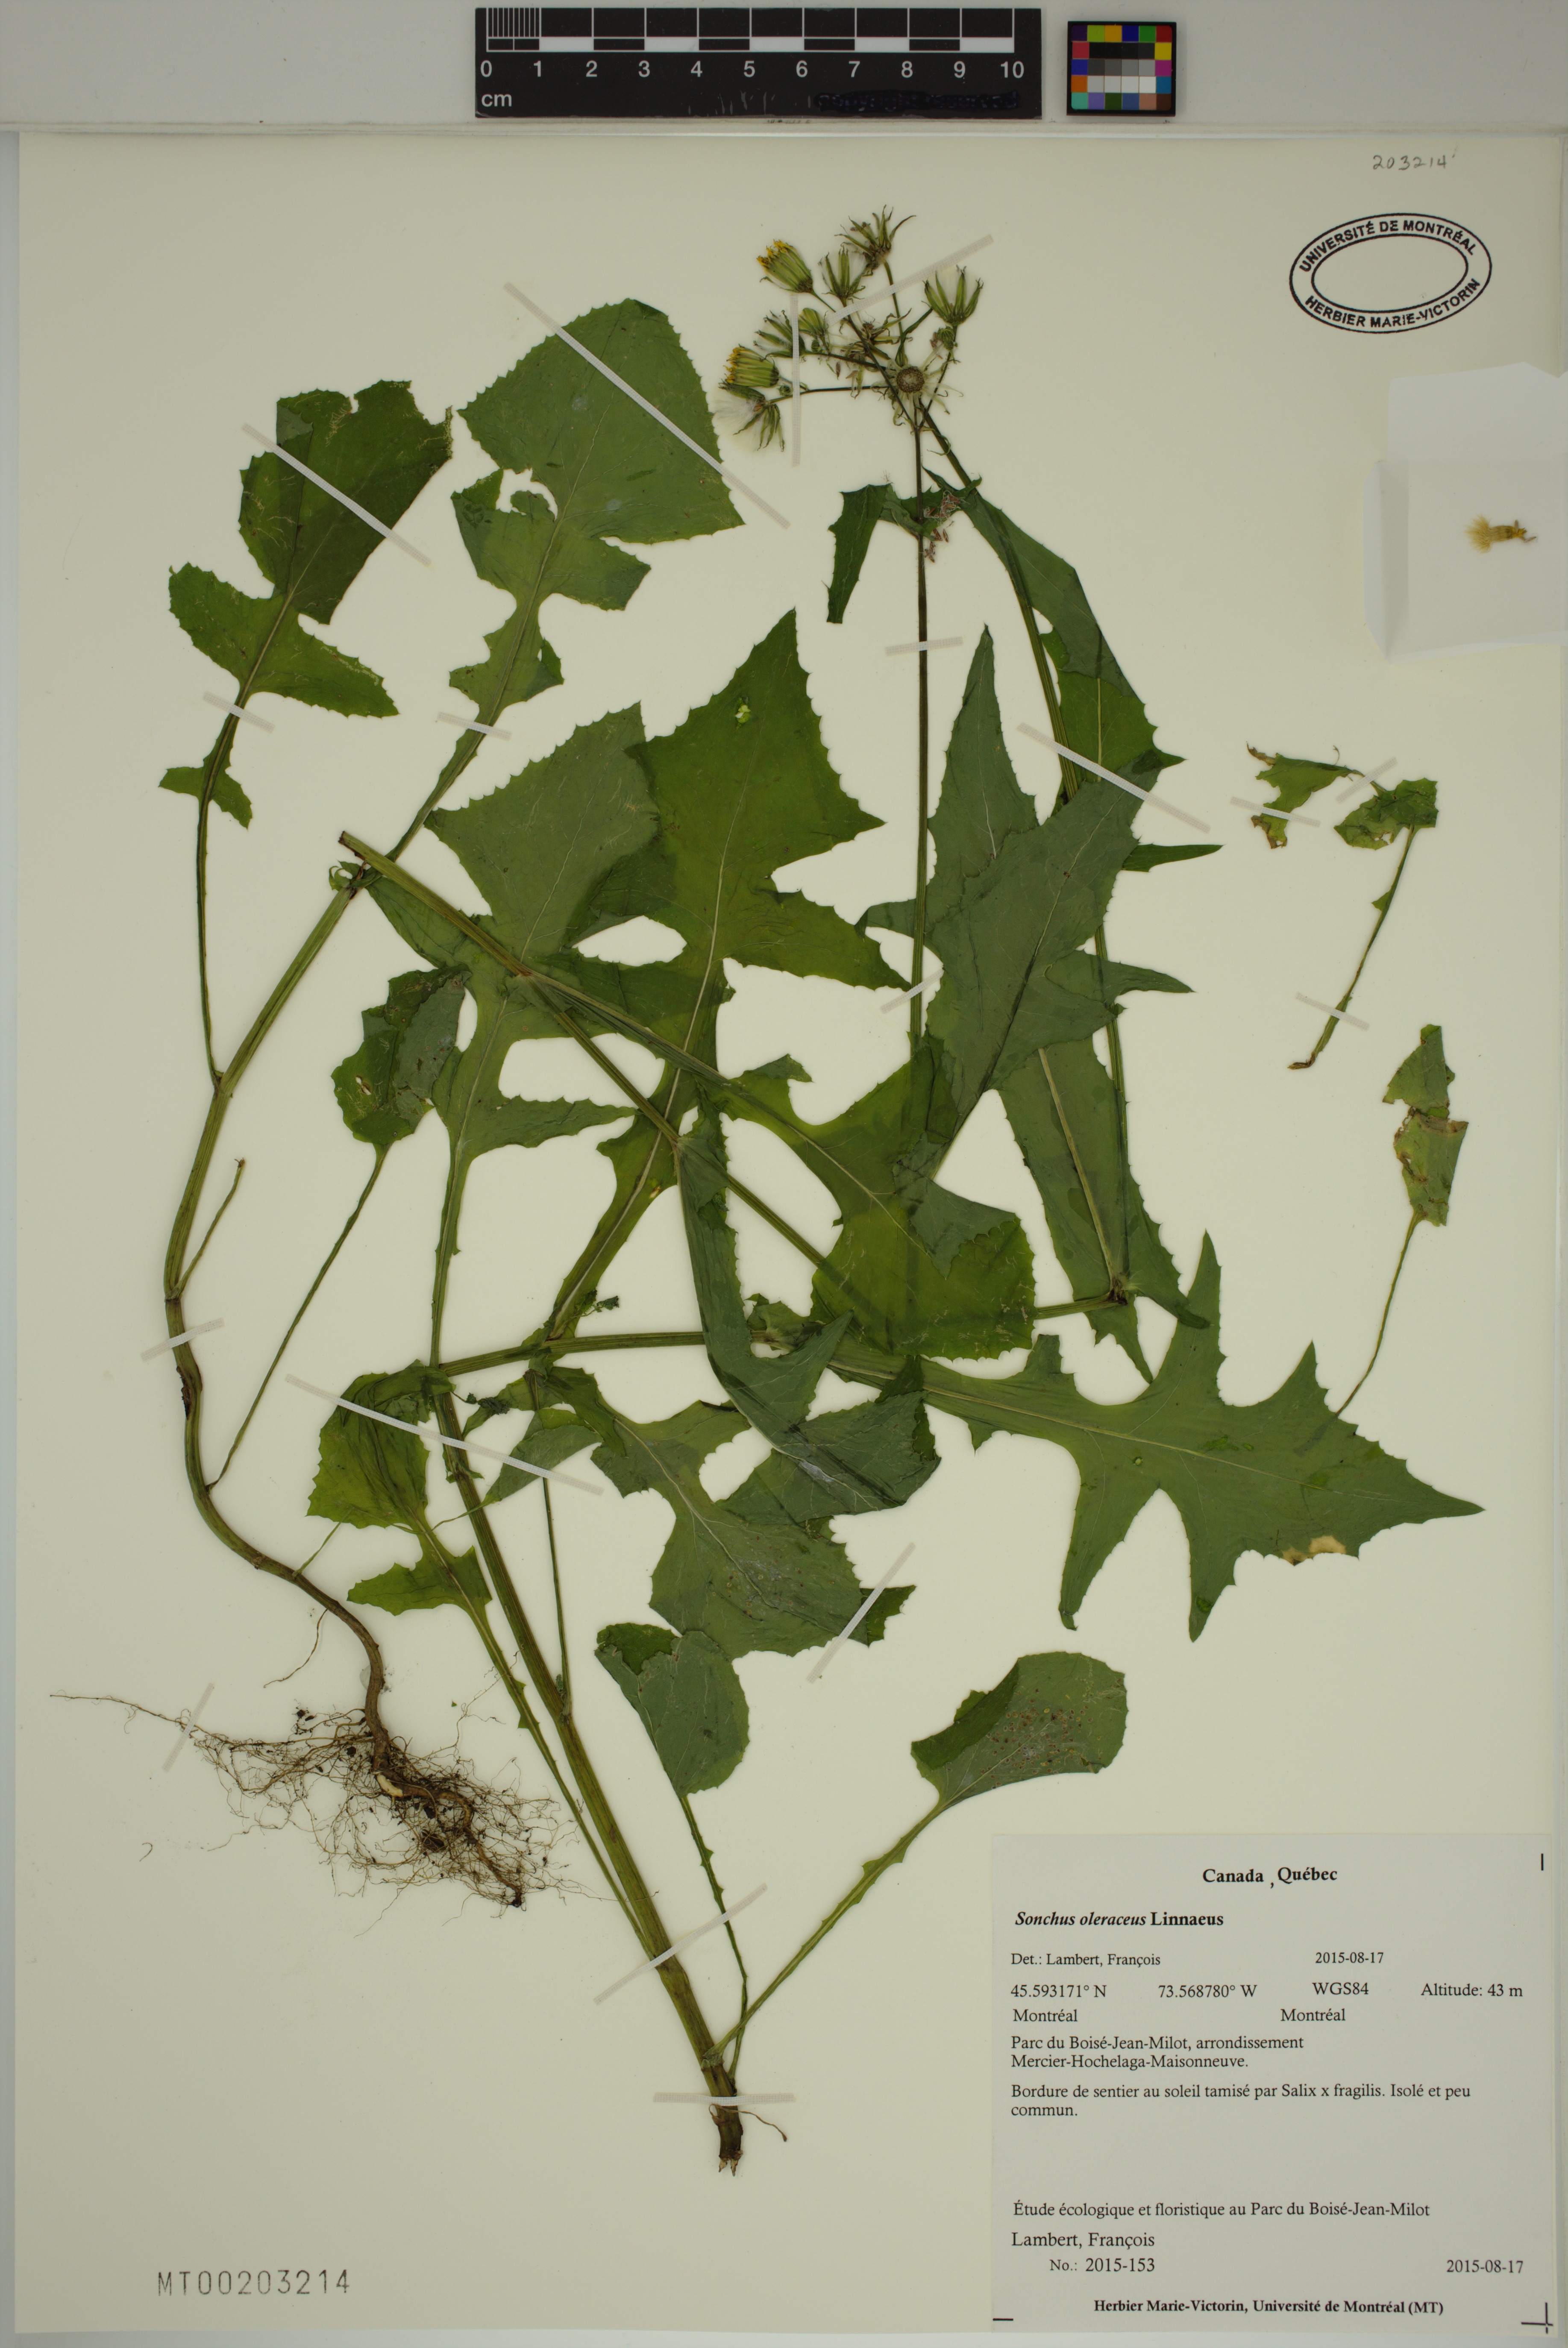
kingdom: Plantae
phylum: Tracheophyta
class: Magnoliopsida
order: Asterales
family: Asteraceae
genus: Sonchus
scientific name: Sonchus oleraceus
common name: Common sowthistle
